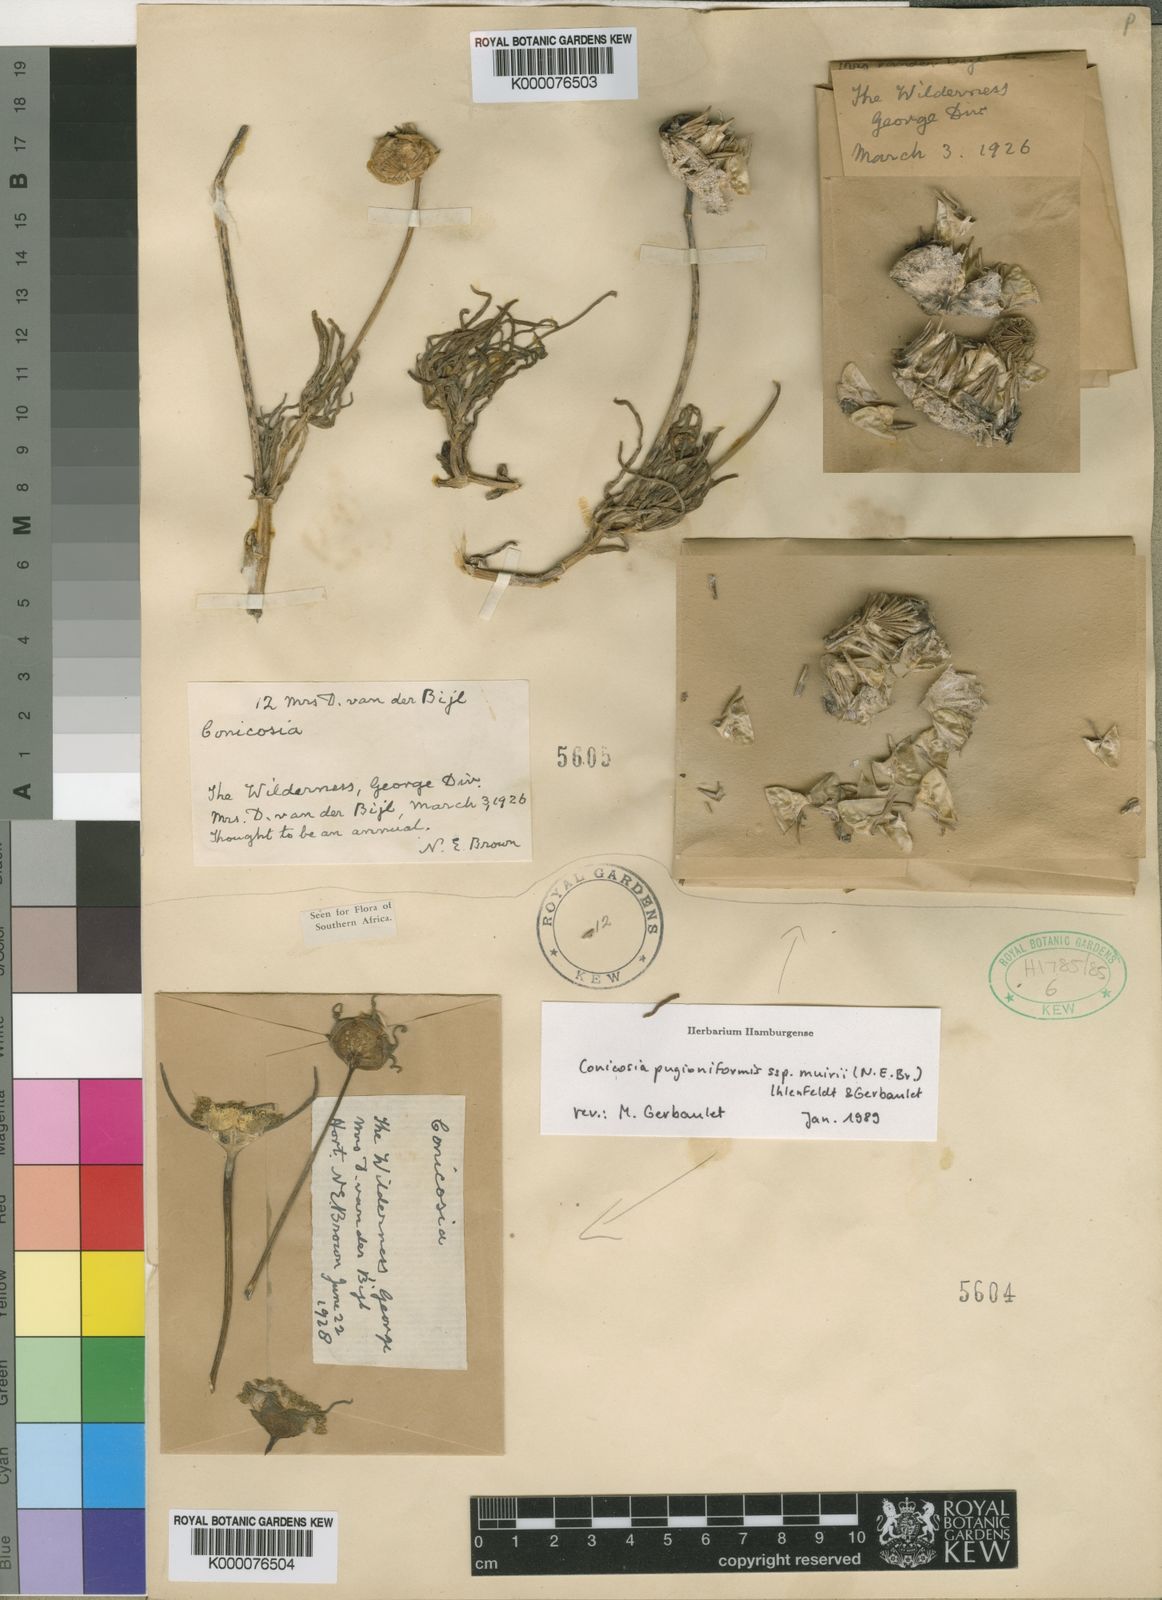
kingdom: Plantae
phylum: Tracheophyta
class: Magnoliopsida
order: Caryophyllales
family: Aizoaceae
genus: Conicosia
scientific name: Conicosia pugioniformis
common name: Narrow-leaved iceplant
